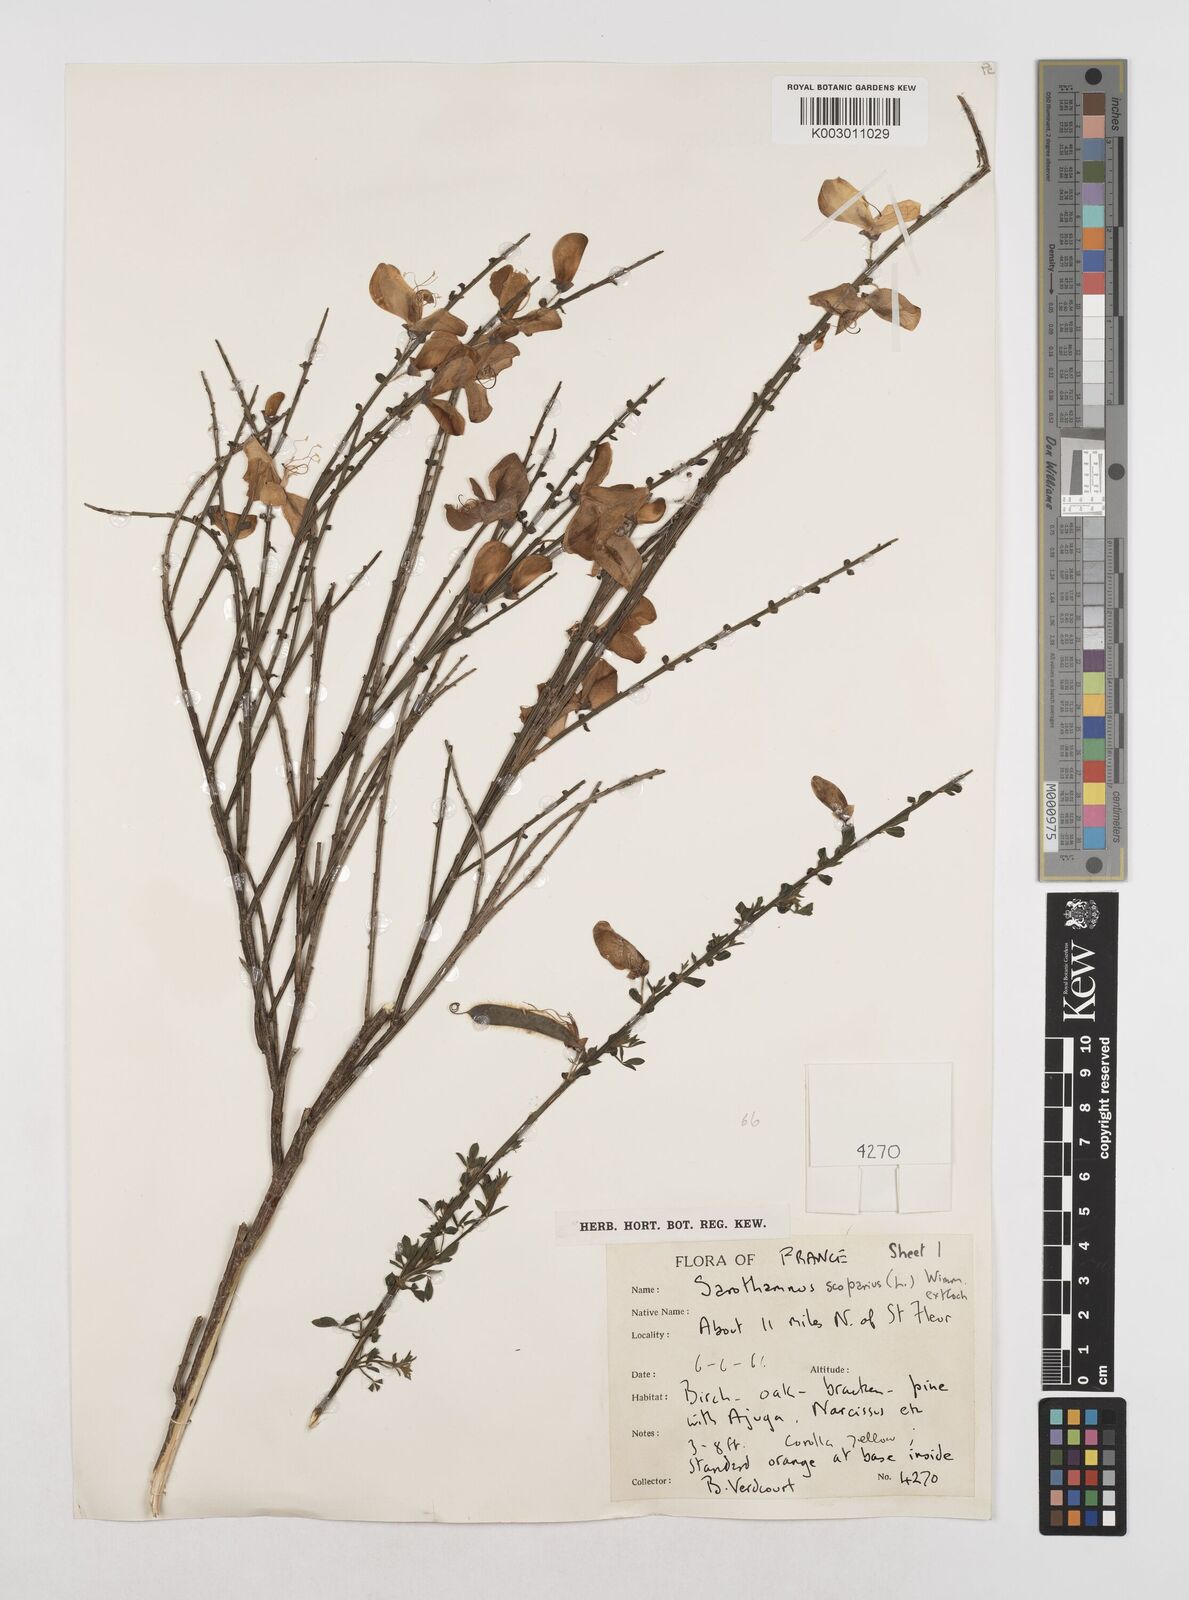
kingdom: Plantae
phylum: Tracheophyta
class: Magnoliopsida
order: Fabales
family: Fabaceae
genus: Cytisus
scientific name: Cytisus scoparius
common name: Scotch broom
